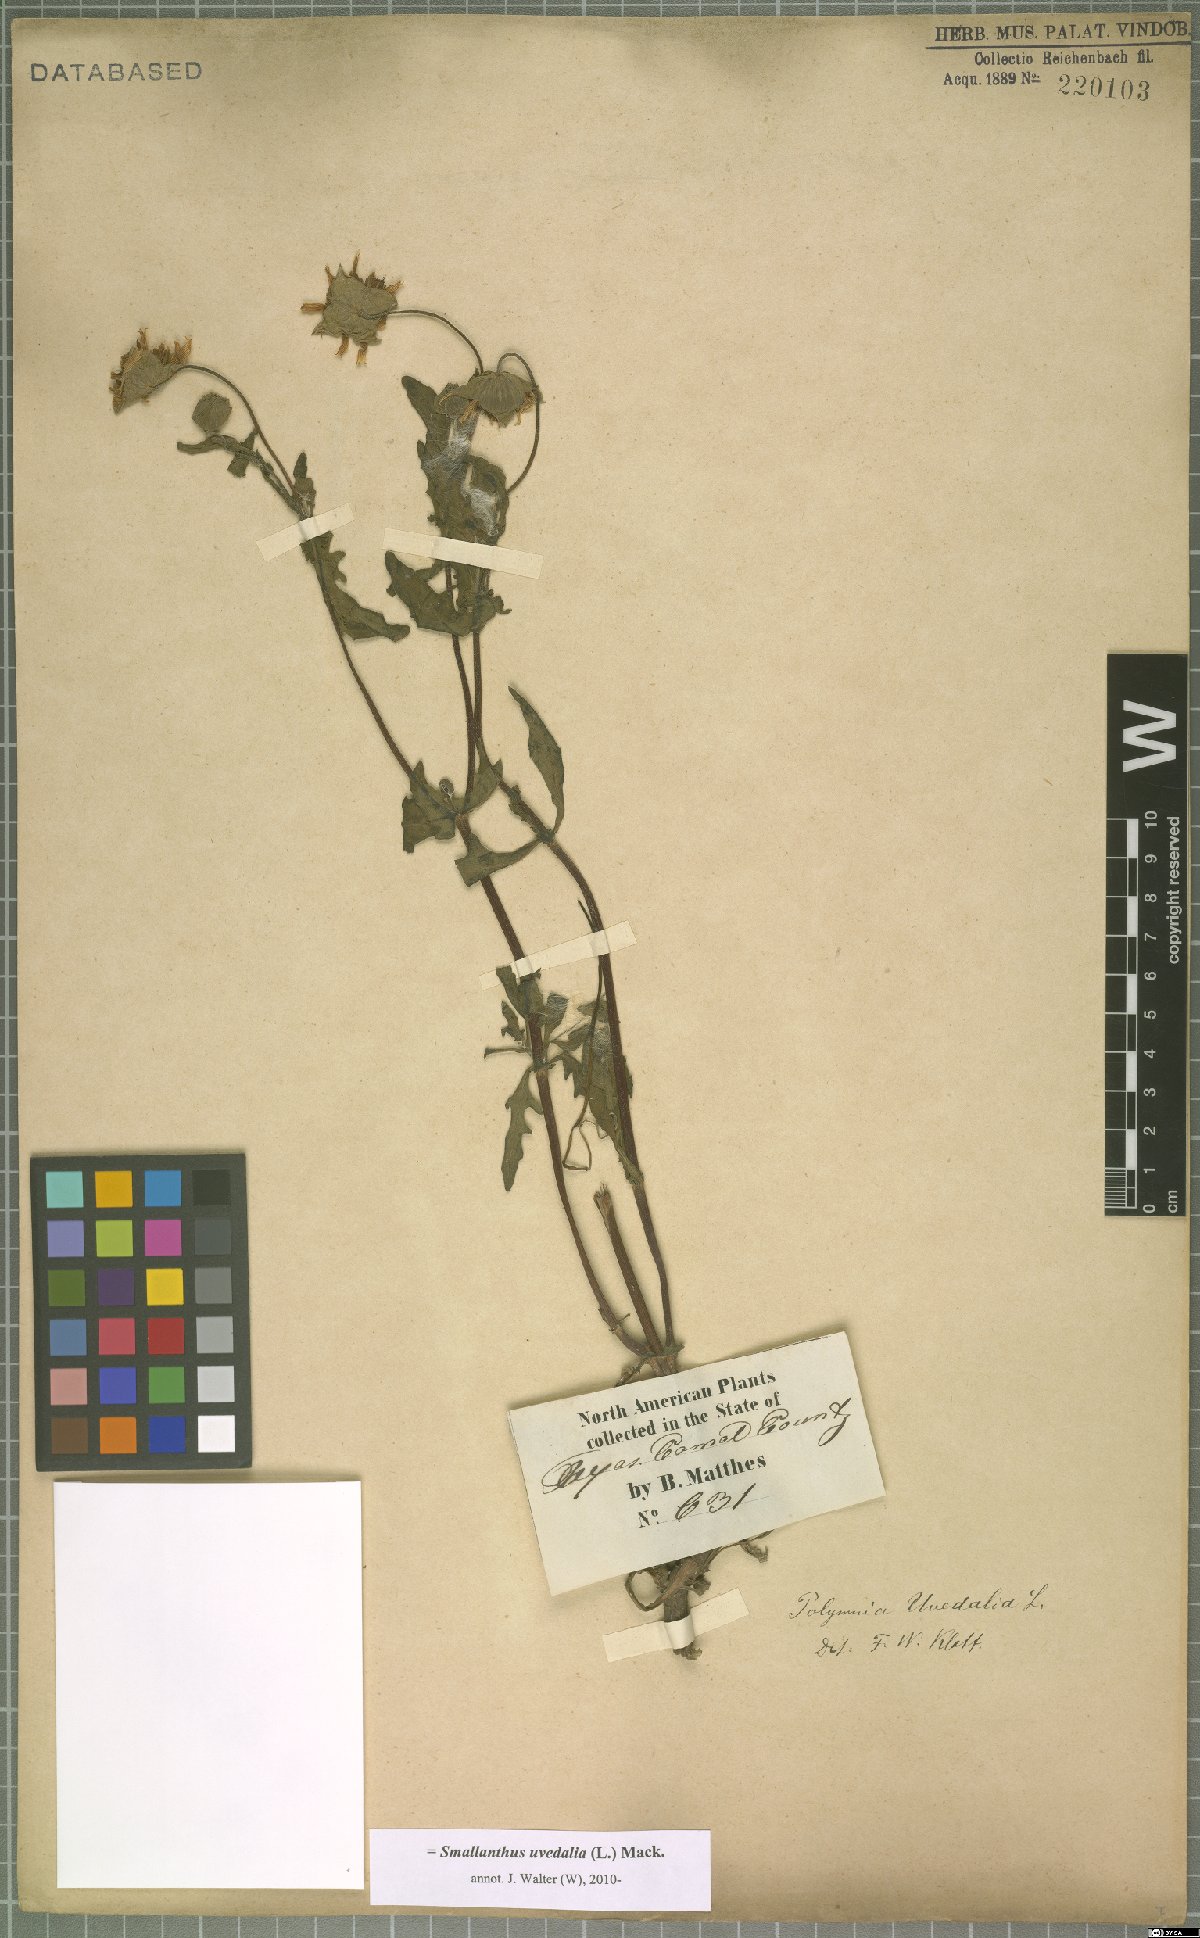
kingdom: Plantae
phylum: Tracheophyta
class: Magnoliopsida
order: Asterales
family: Asteraceae
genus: Smallanthus
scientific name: Smallanthus uvedalia
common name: Bear's-foot
